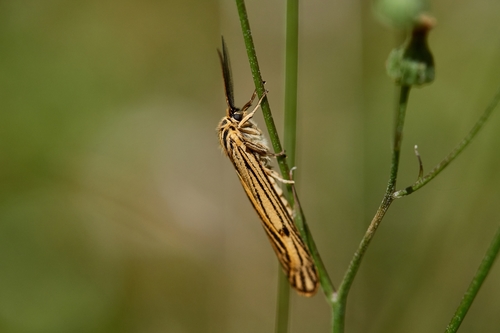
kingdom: Animalia
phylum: Arthropoda
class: Insecta
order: Lepidoptera
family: Erebidae
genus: Coscinia
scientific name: Coscinia Spiris striata
